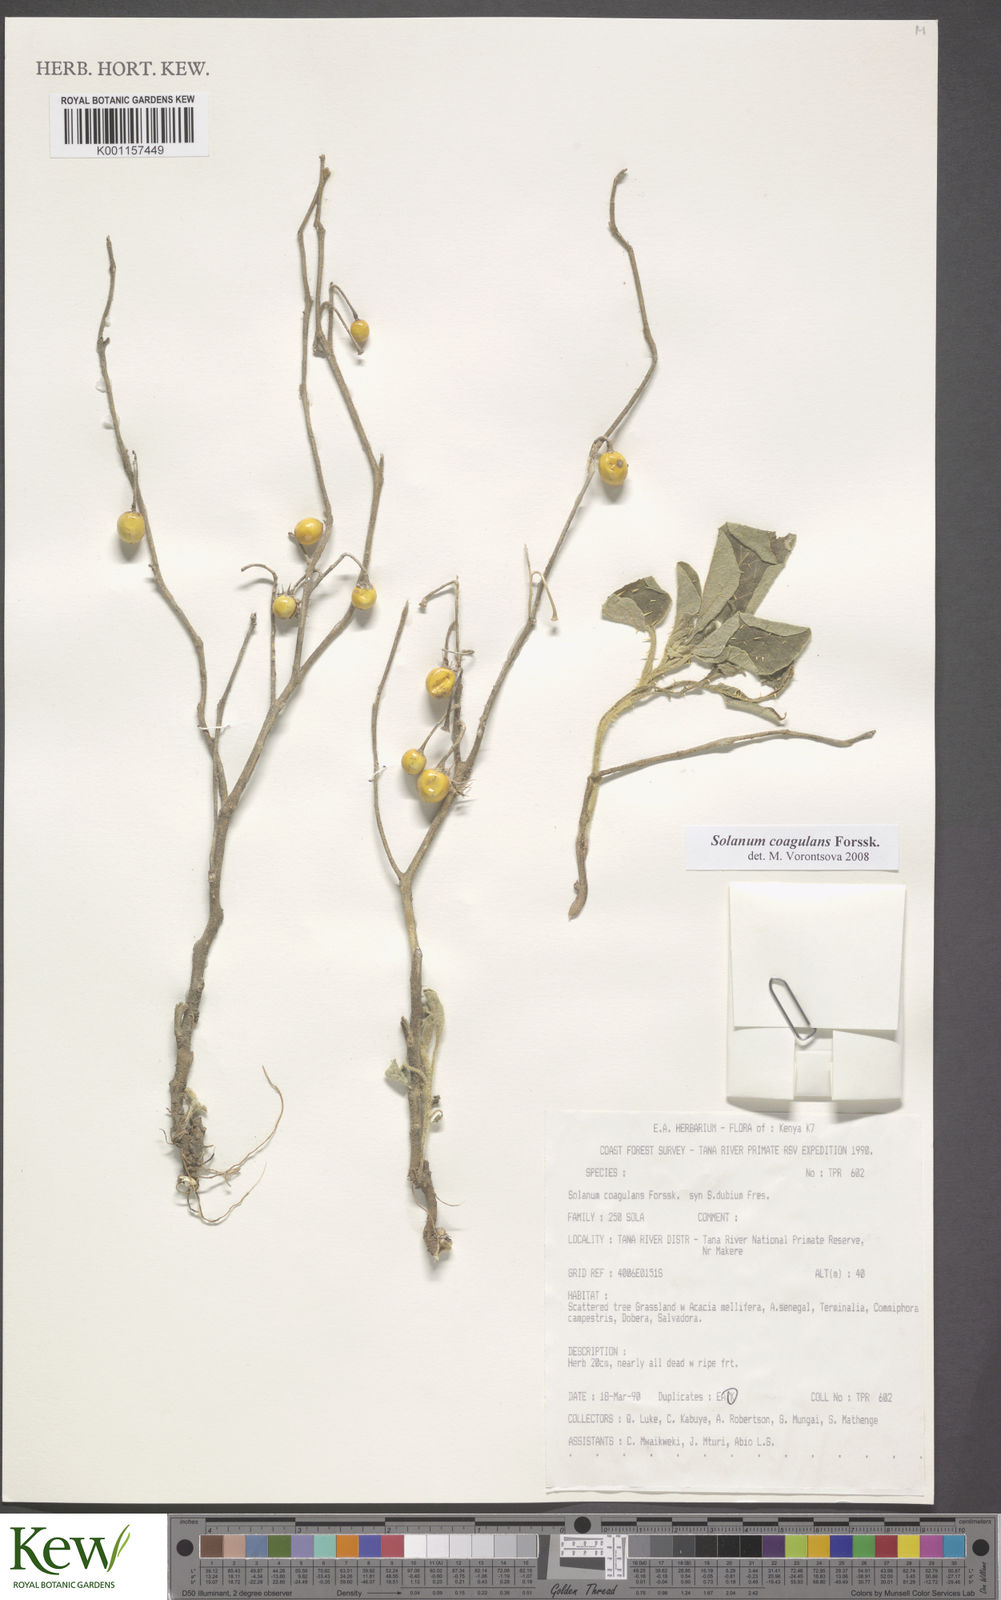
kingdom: Plantae
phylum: Tracheophyta
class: Magnoliopsida
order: Solanales
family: Solanaceae
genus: Solanum
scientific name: Solanum coagulans
